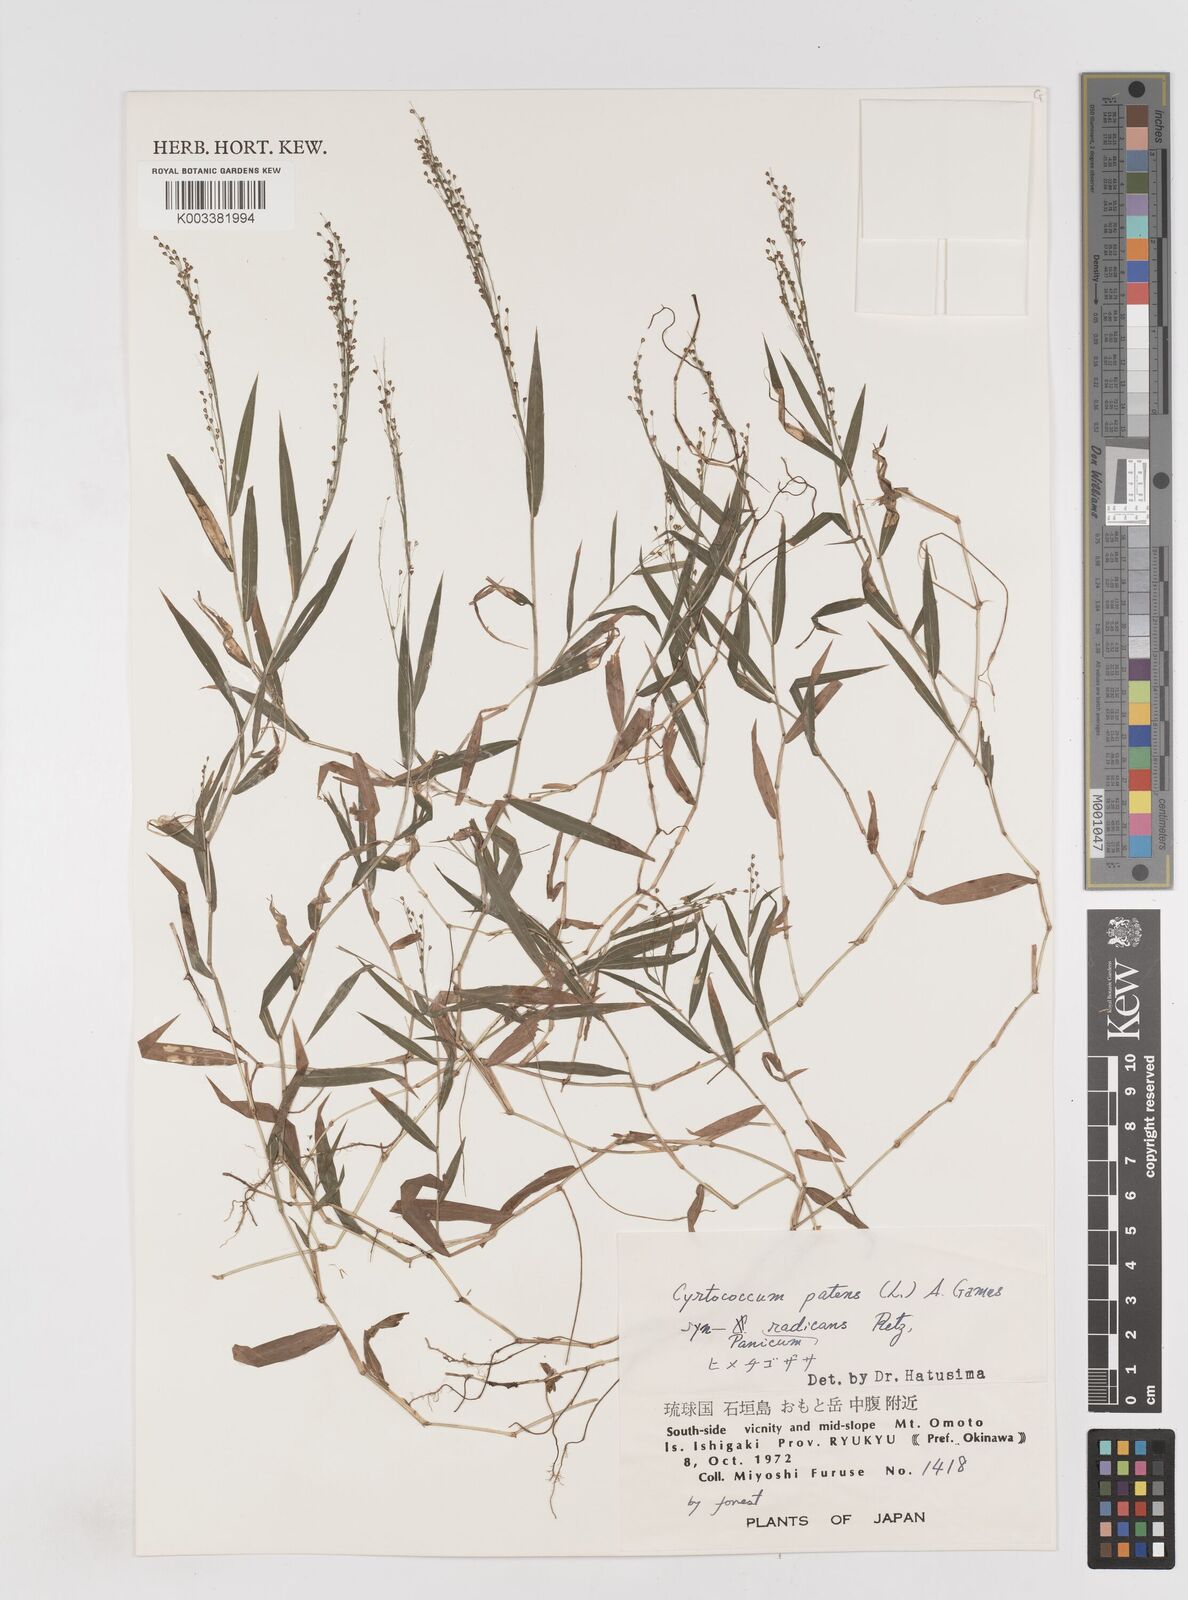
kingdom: Plantae
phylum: Tracheophyta
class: Liliopsida
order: Poales
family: Poaceae
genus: Cyrtococcum
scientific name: Cyrtococcum patens
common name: Broad-leaved bowgrass
